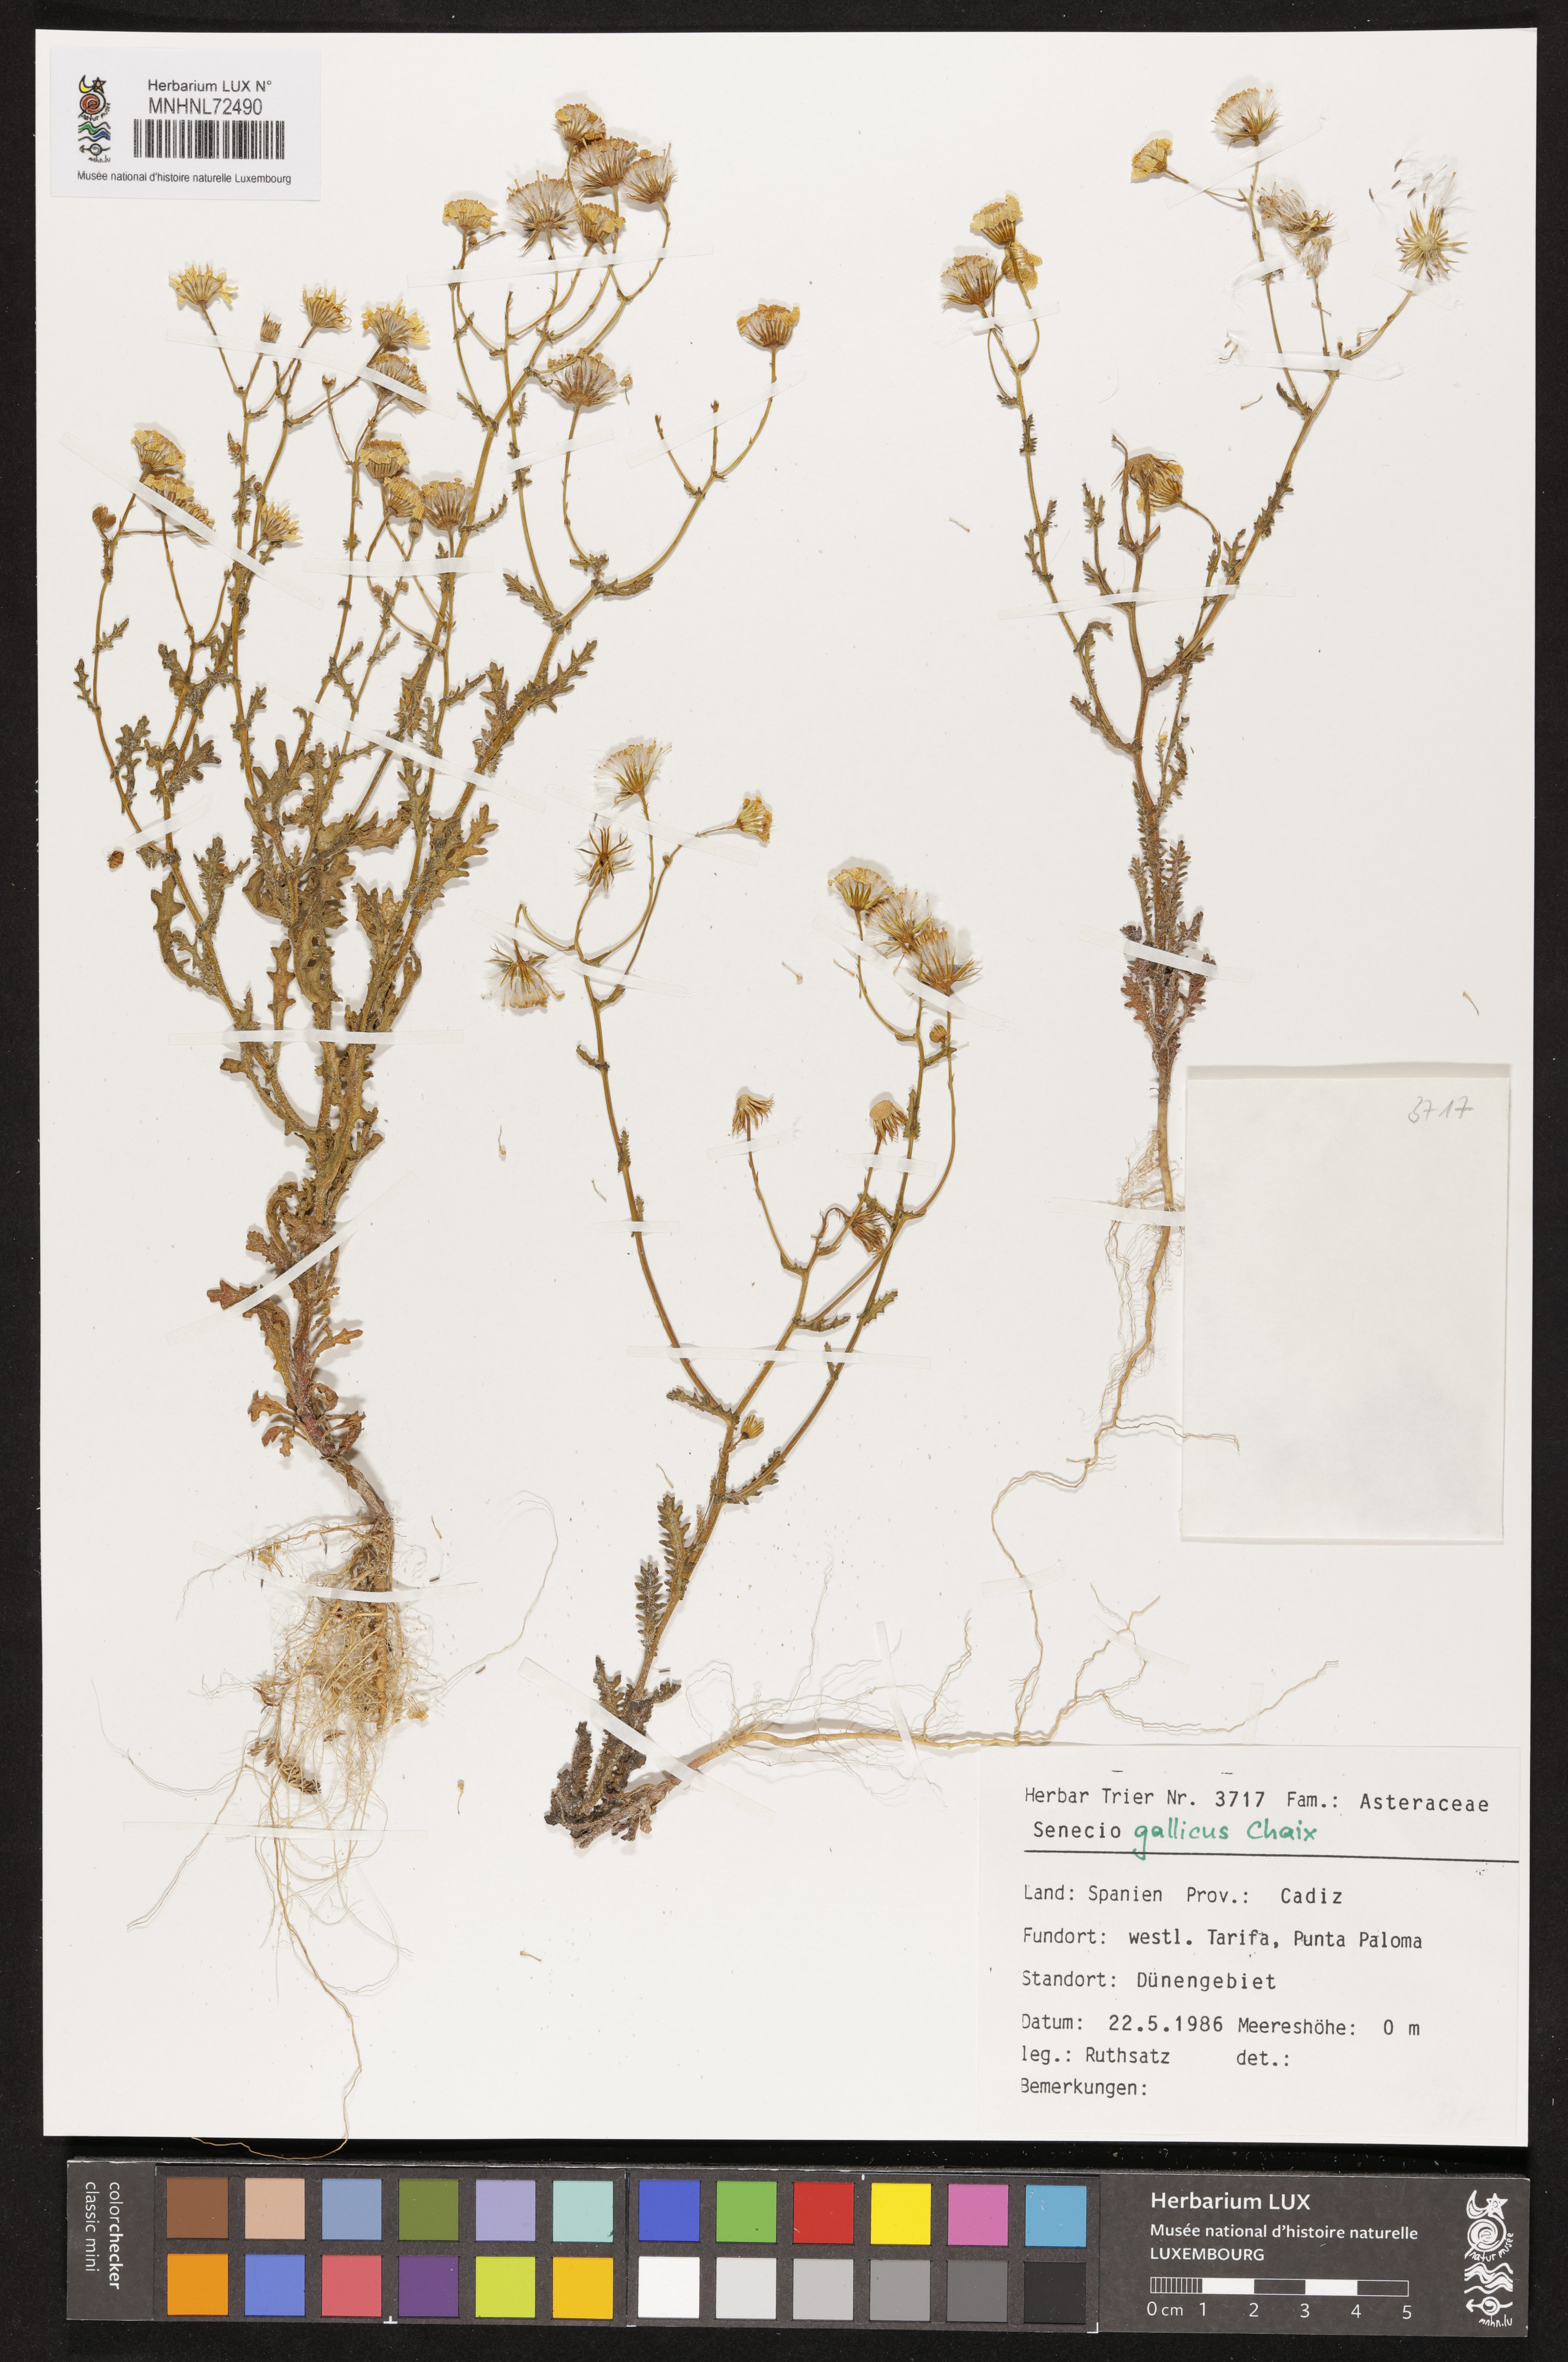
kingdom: Plantae
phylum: Tracheophyta
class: Magnoliopsida
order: Asterales
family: Asteraceae
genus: Senecio
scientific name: Senecio gallicus
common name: French groundsel
